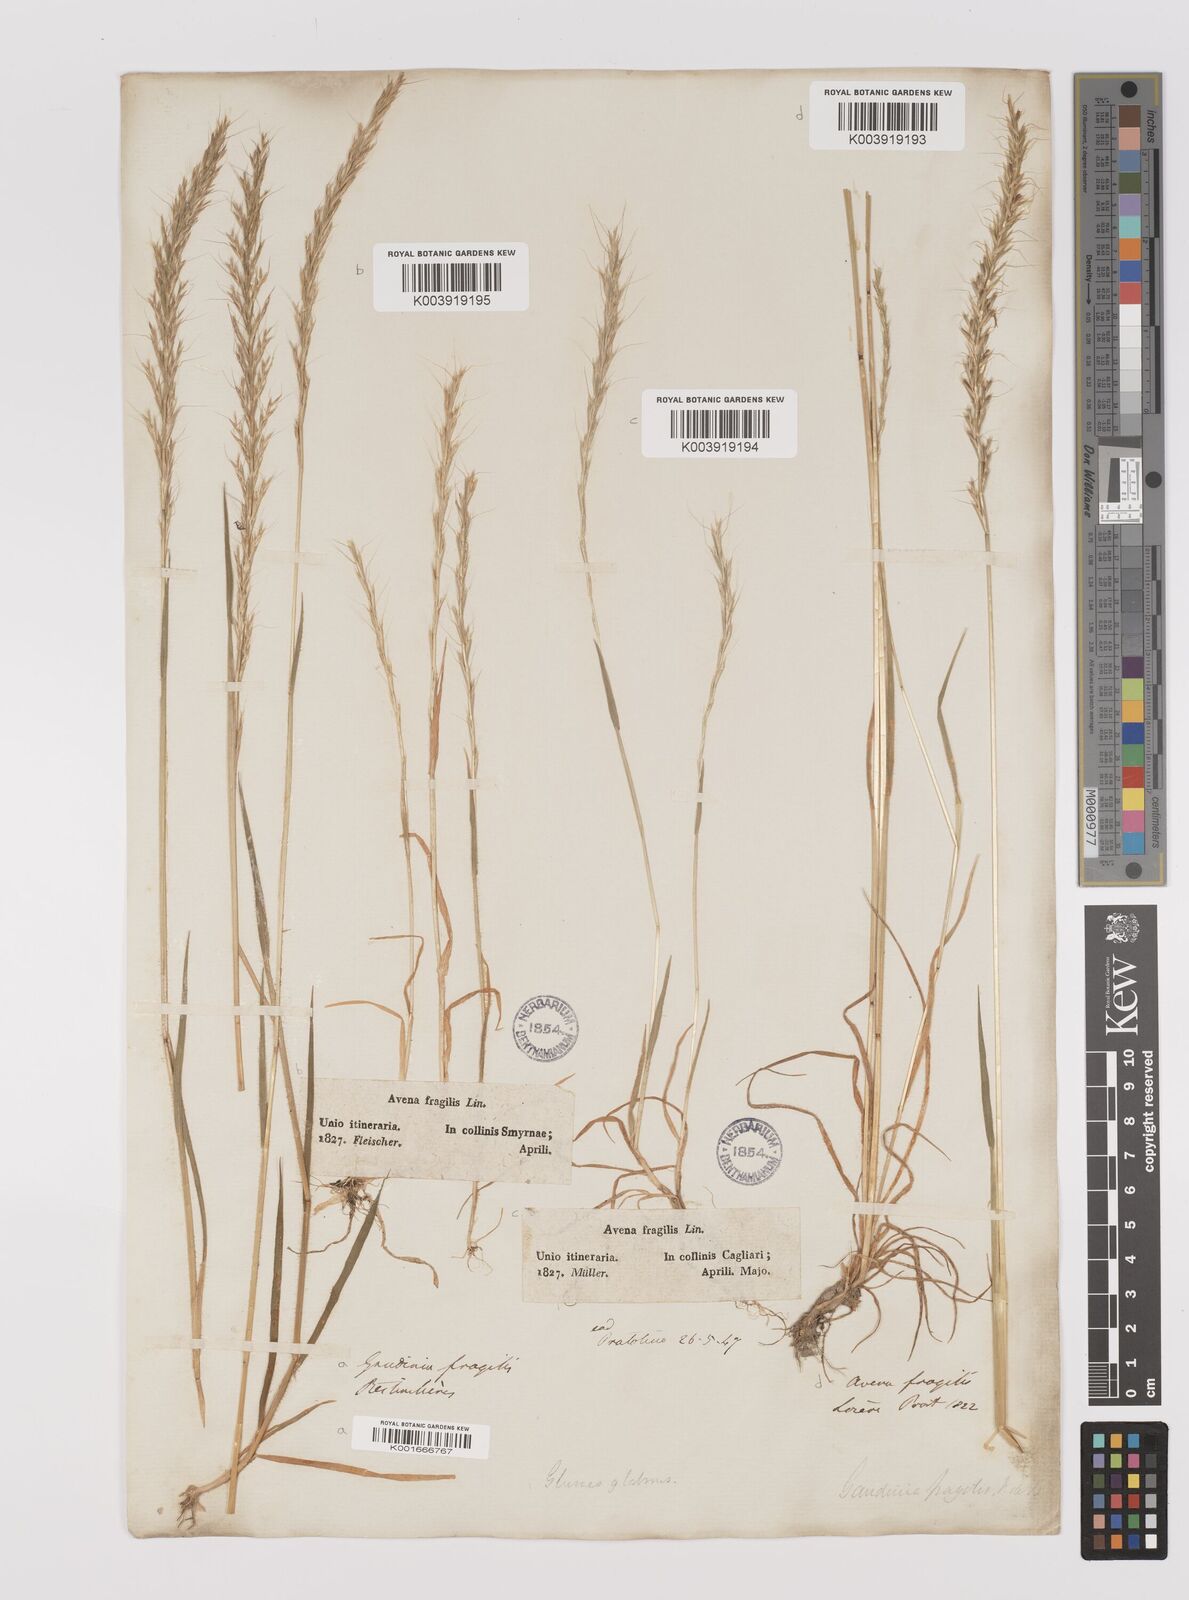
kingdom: Plantae
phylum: Tracheophyta
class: Liliopsida
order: Poales
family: Poaceae
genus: Gaudinia
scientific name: Gaudinia fragilis
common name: French oat-grass
